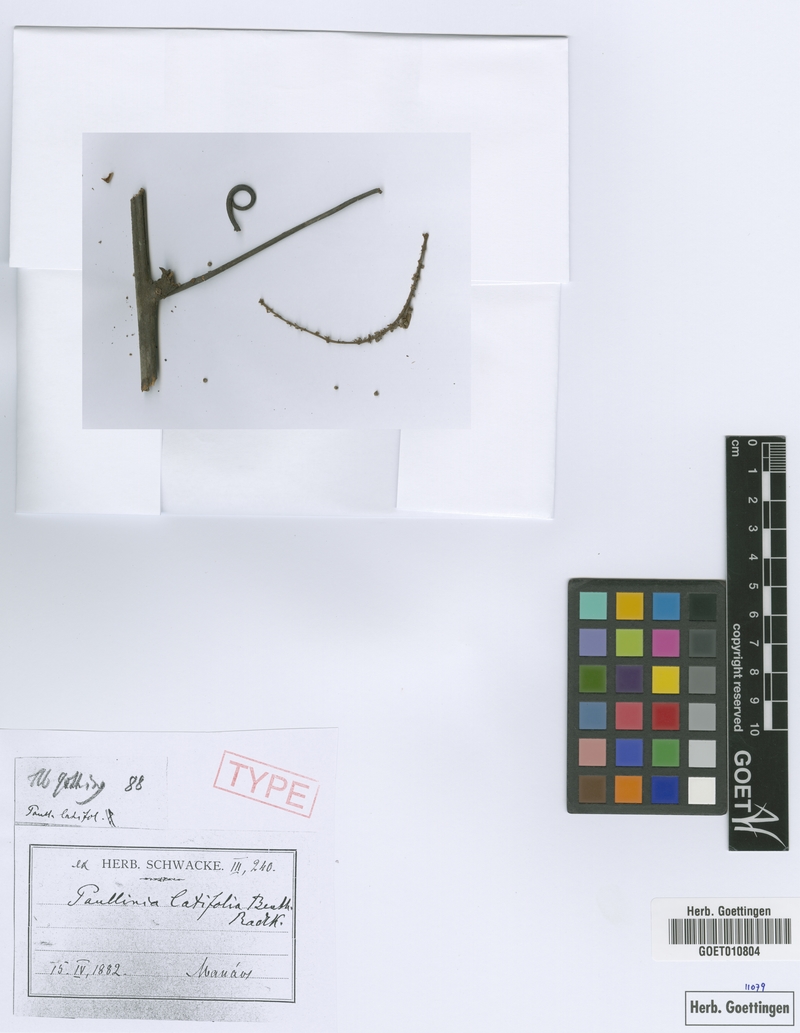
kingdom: Plantae
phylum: Tracheophyta
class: Magnoliopsida
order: Sapindales
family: Sapindaceae
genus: Paullinia
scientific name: Paullinia latifolia
